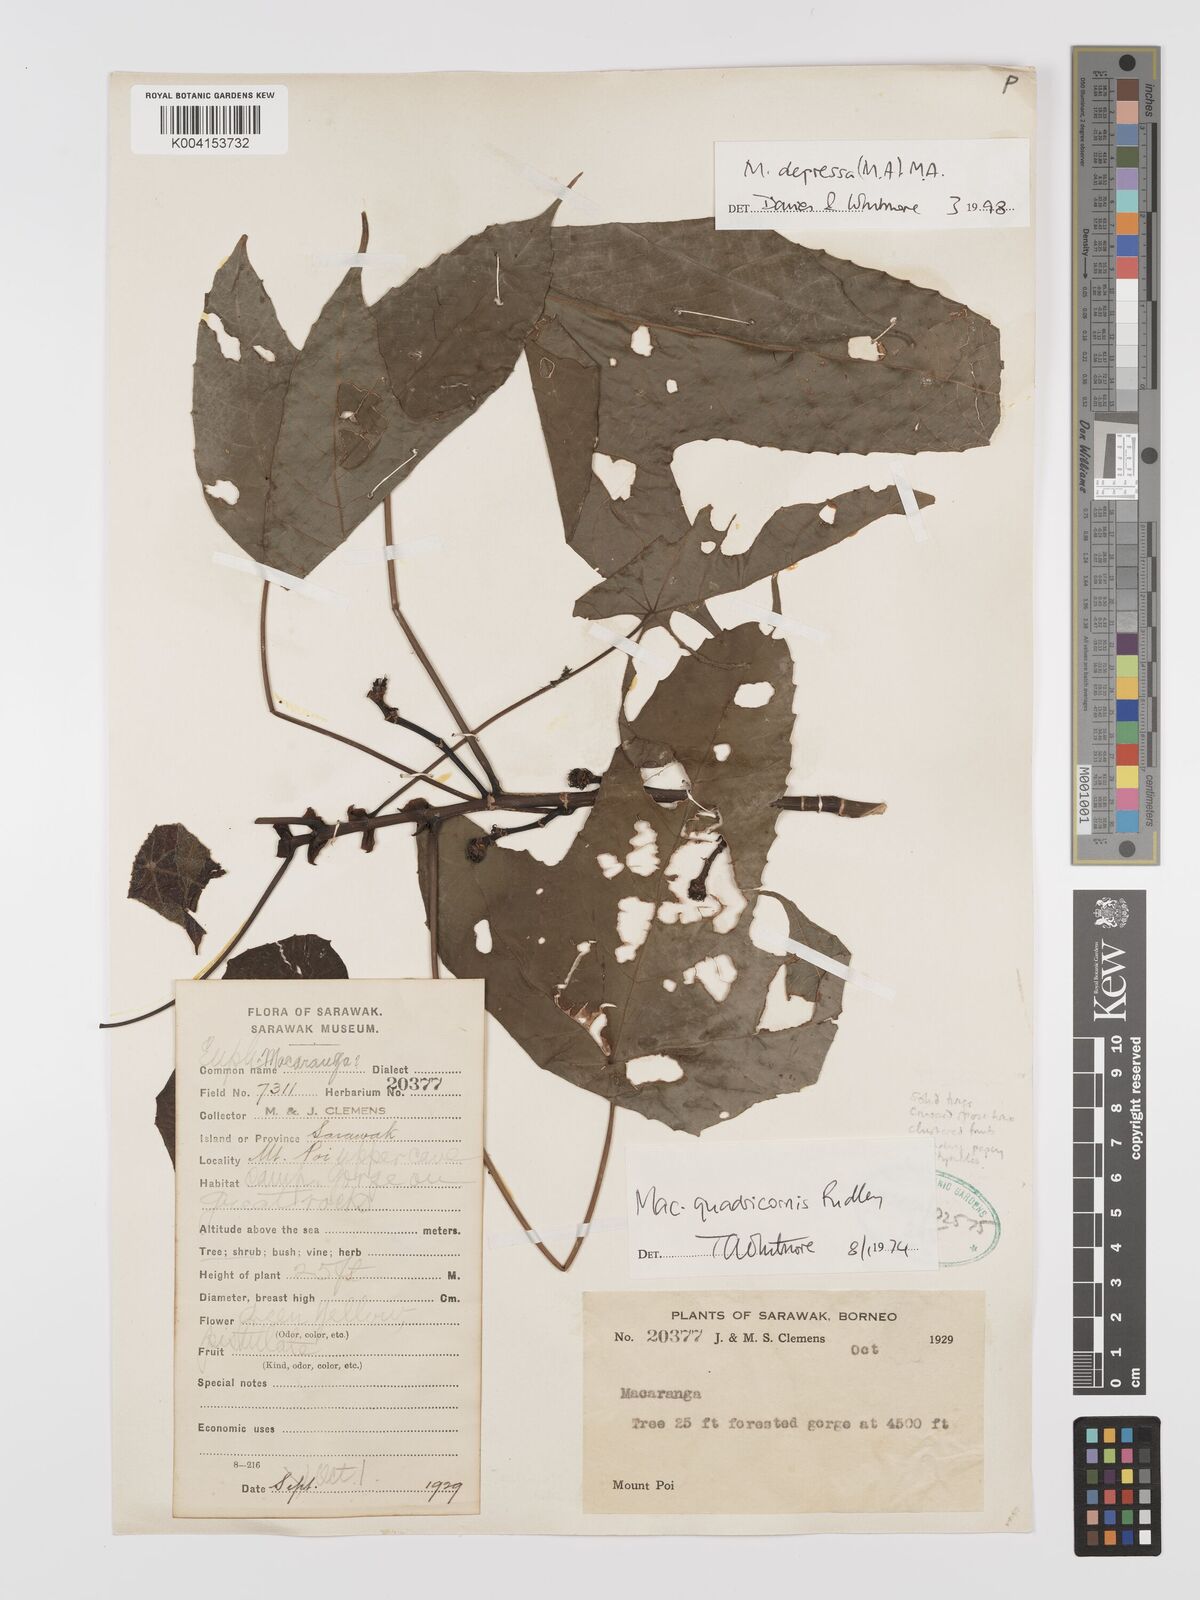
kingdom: Plantae
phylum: Tracheophyta
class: Magnoliopsida
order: Malpighiales
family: Euphorbiaceae
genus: Macaranga
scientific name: Macaranga depressa
